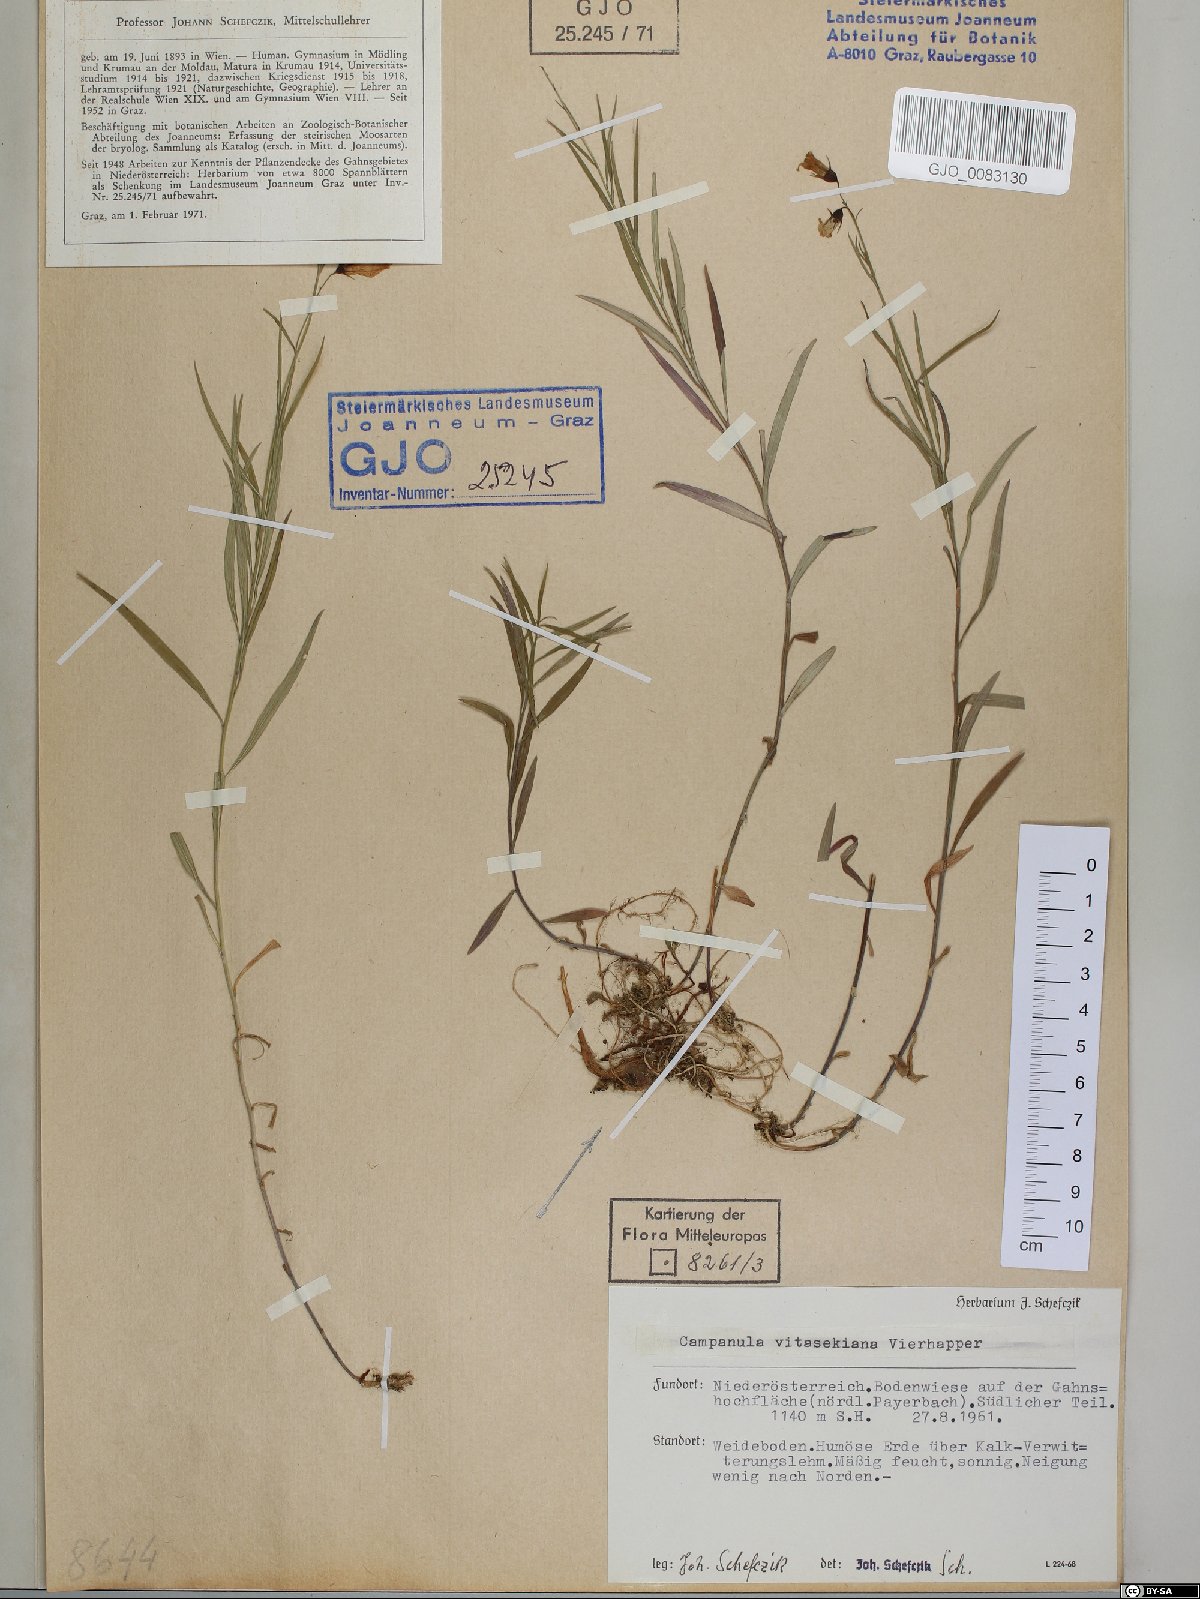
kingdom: Plantae
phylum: Tracheophyta
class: Magnoliopsida
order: Asterales
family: Campanulaceae
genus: Campanula
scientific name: Campanula witasekiana
